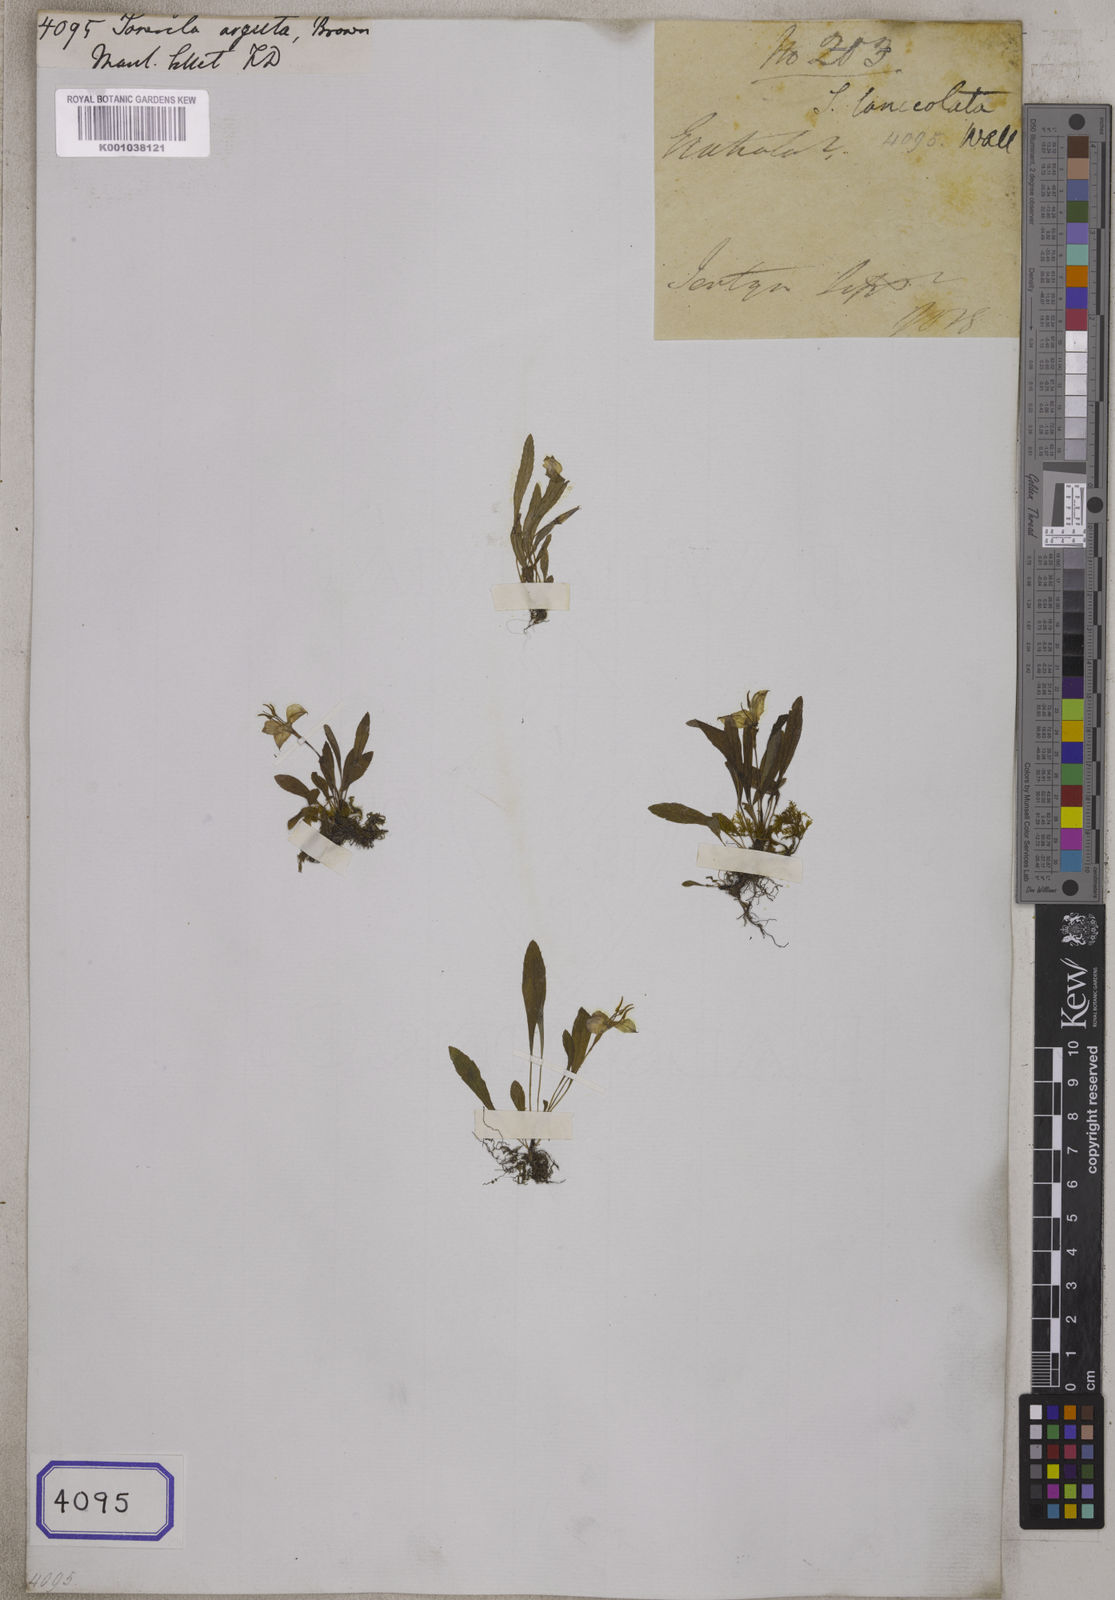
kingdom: Plantae
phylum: Tracheophyta
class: Magnoliopsida
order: Myrtales
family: Melastomataceae
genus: Sonerila
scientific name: Sonerila arguta
